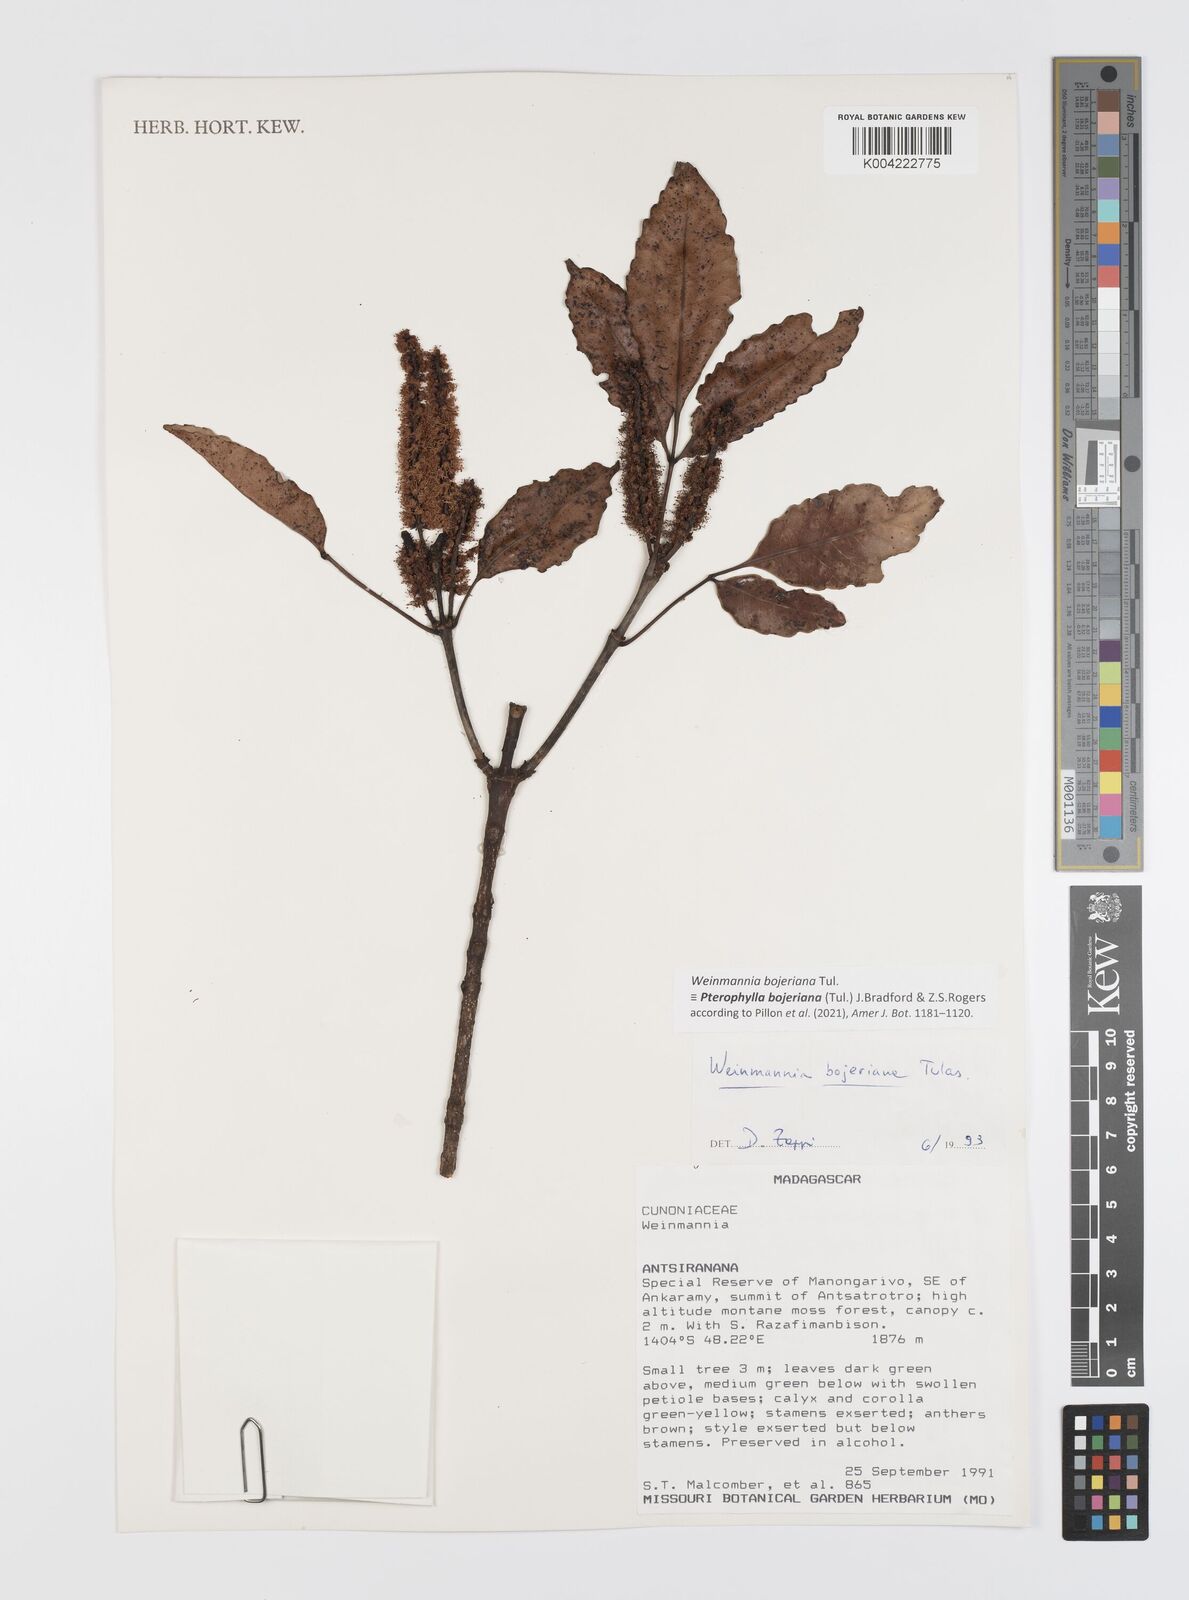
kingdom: Plantae
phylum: Tracheophyta
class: Magnoliopsida
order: Oxalidales
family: Cunoniaceae
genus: Pterophylla
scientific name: Pterophylla
